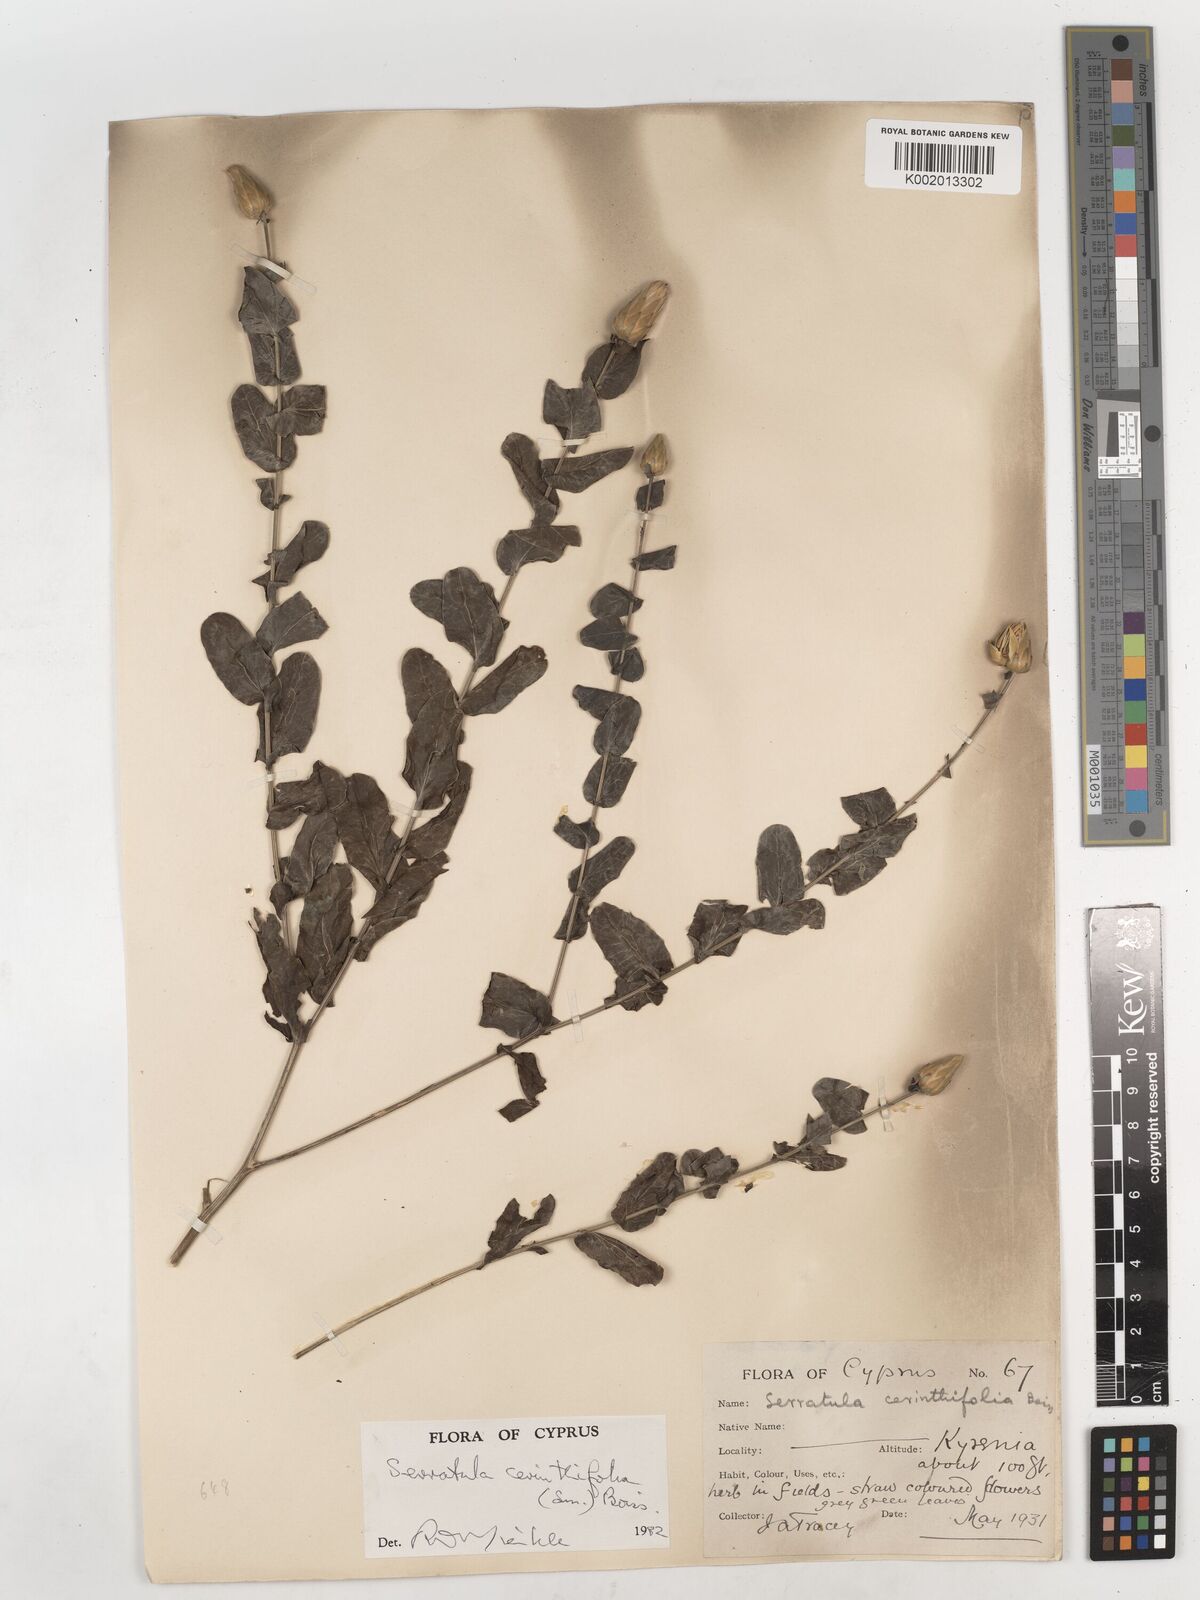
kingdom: Plantae
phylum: Tracheophyta
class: Magnoliopsida
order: Asterales
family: Asteraceae
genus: Klasea
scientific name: Klasea cerinthifolia
